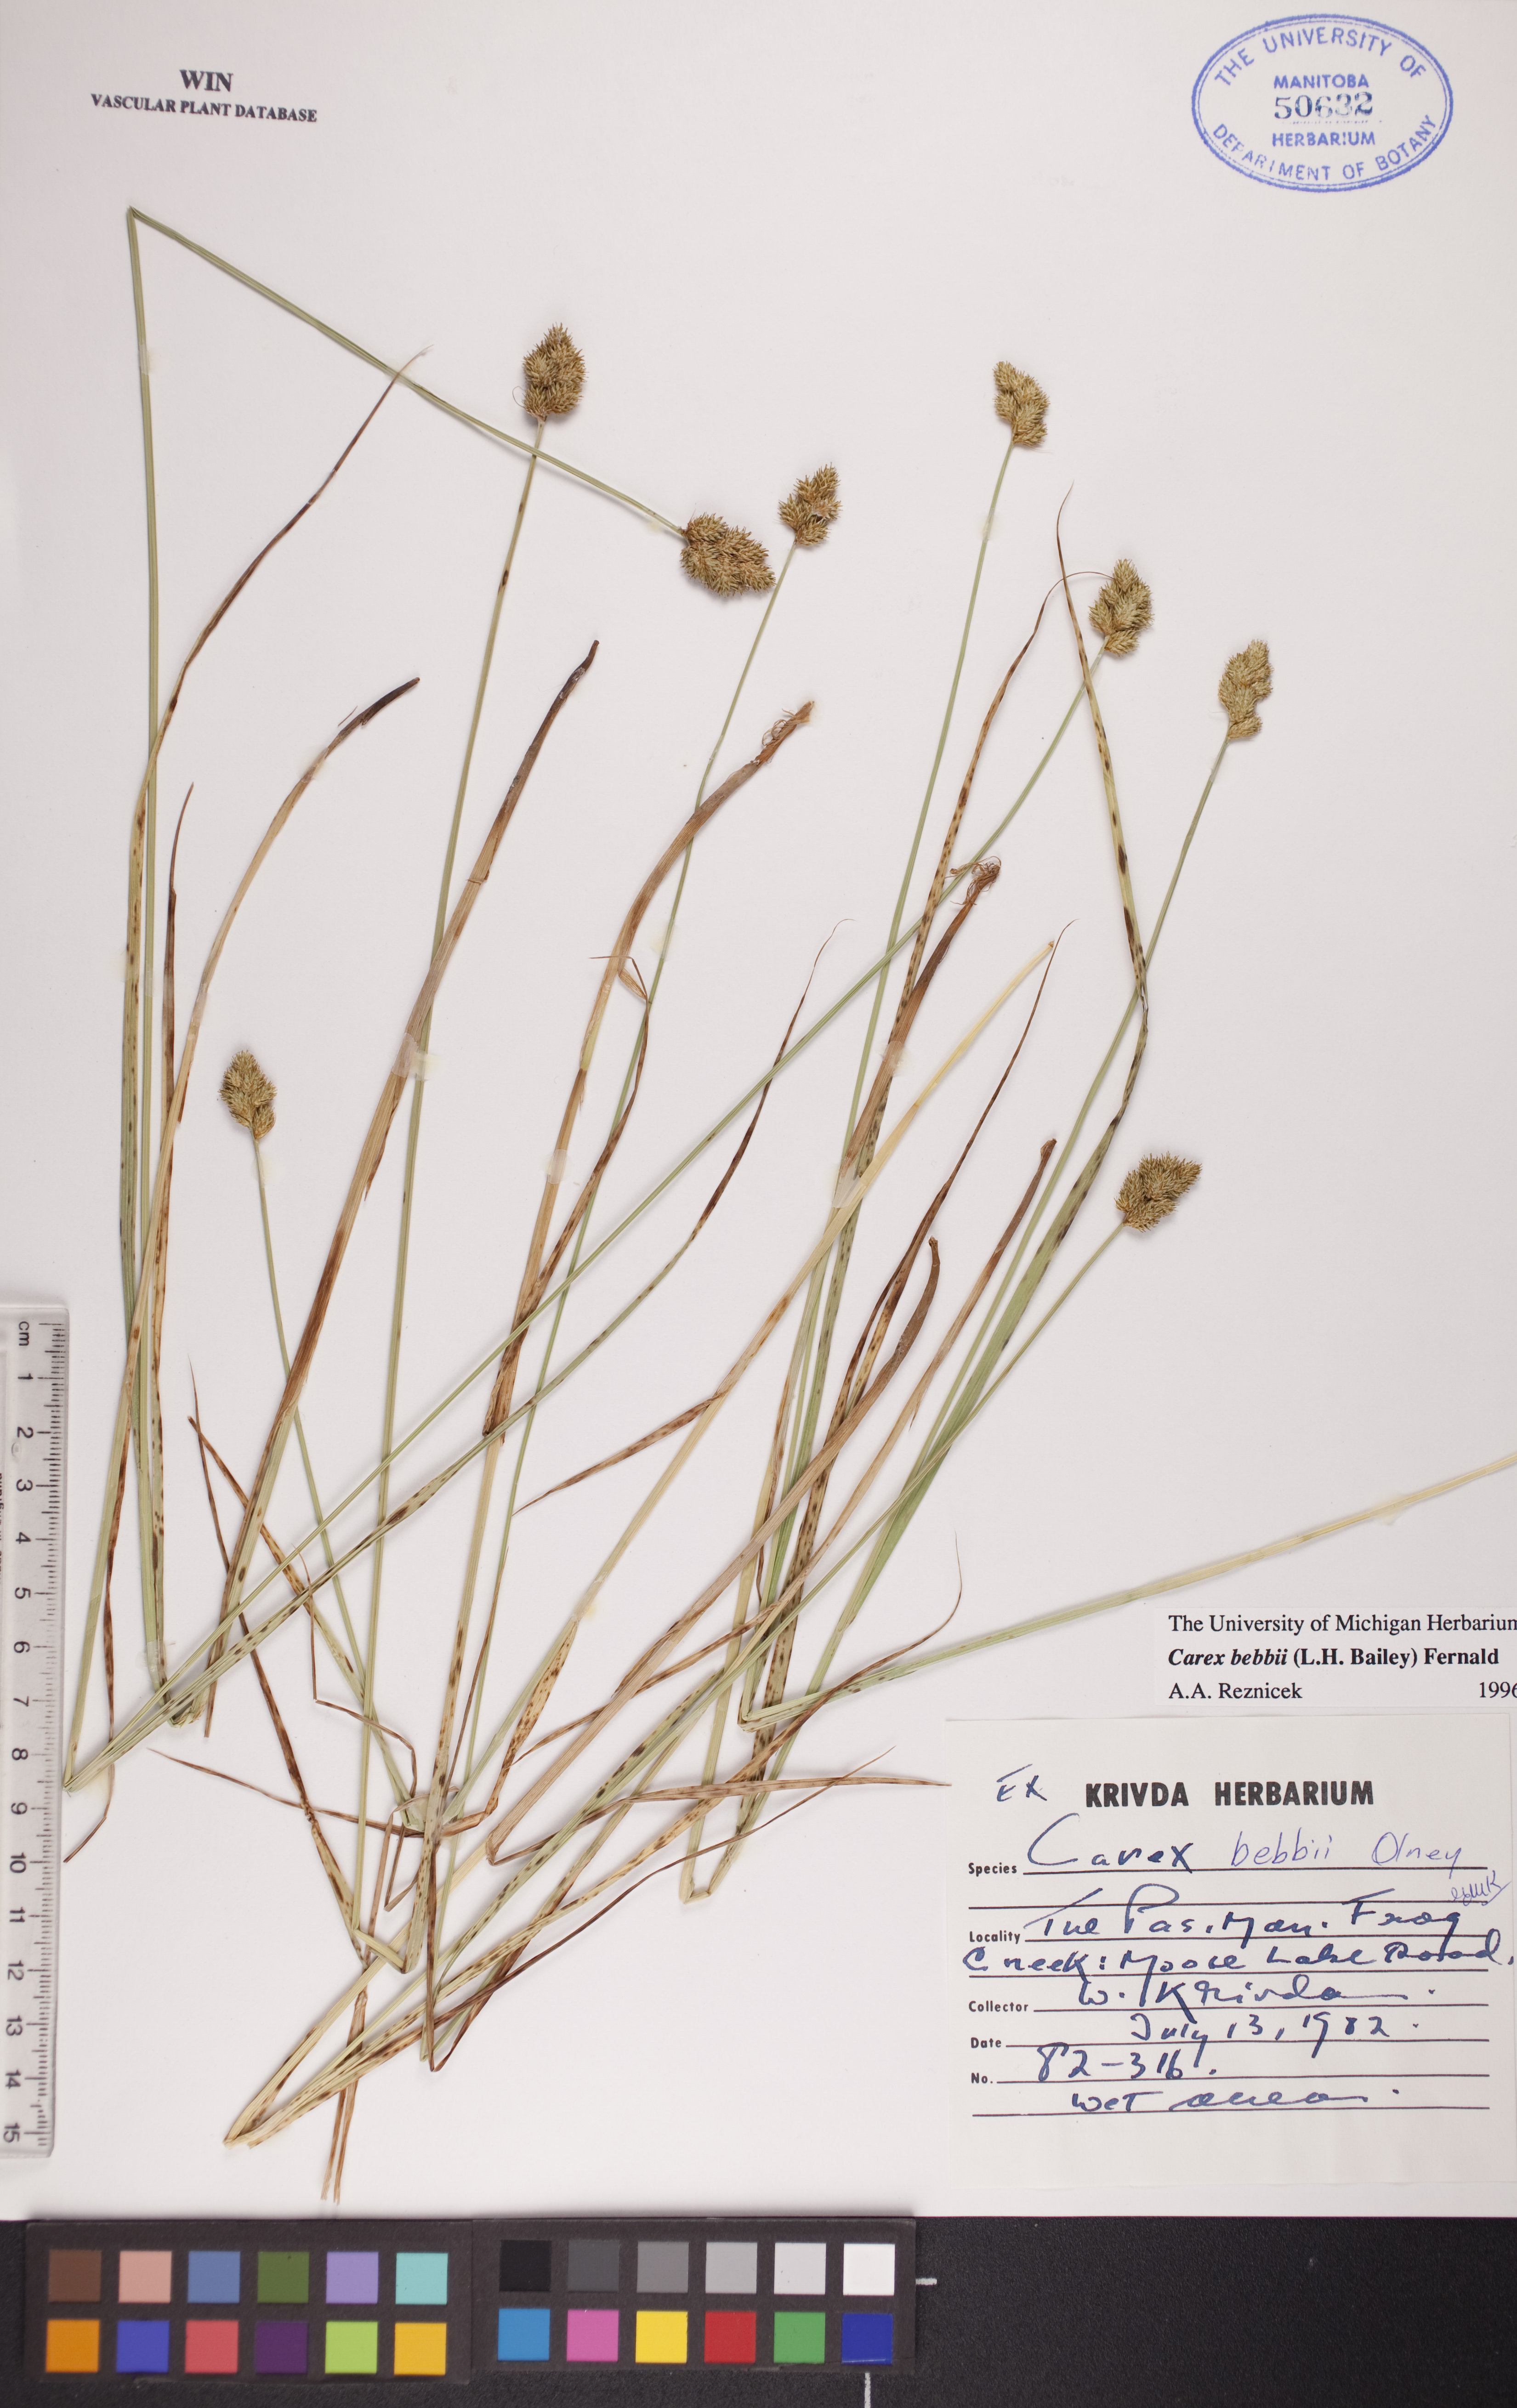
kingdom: Plantae
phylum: Tracheophyta
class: Liliopsida
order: Poales
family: Cyperaceae
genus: Carex
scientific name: Carex bebbii
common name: Bebb's sedge
